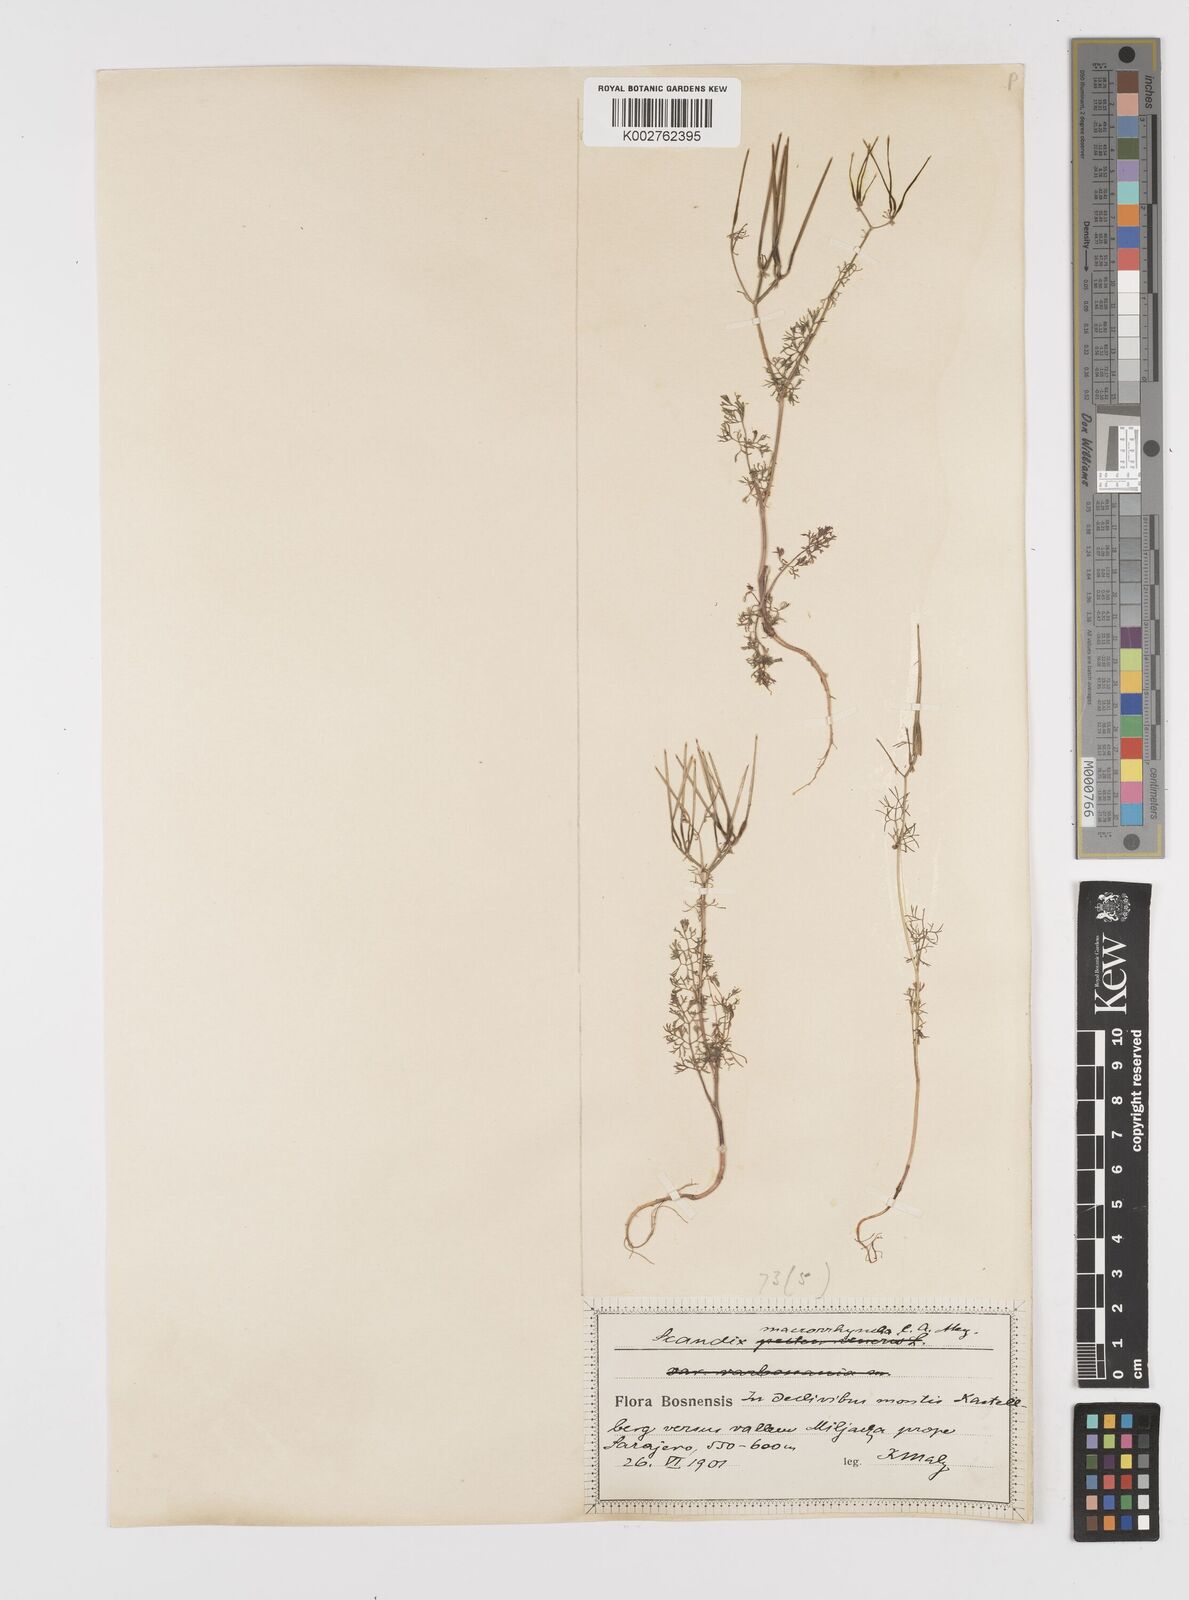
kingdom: Plantae
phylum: Tracheophyta
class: Magnoliopsida
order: Apiales
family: Apiaceae
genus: Scandix
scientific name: Scandix pecten-veneris
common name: Shepherd's-needle
